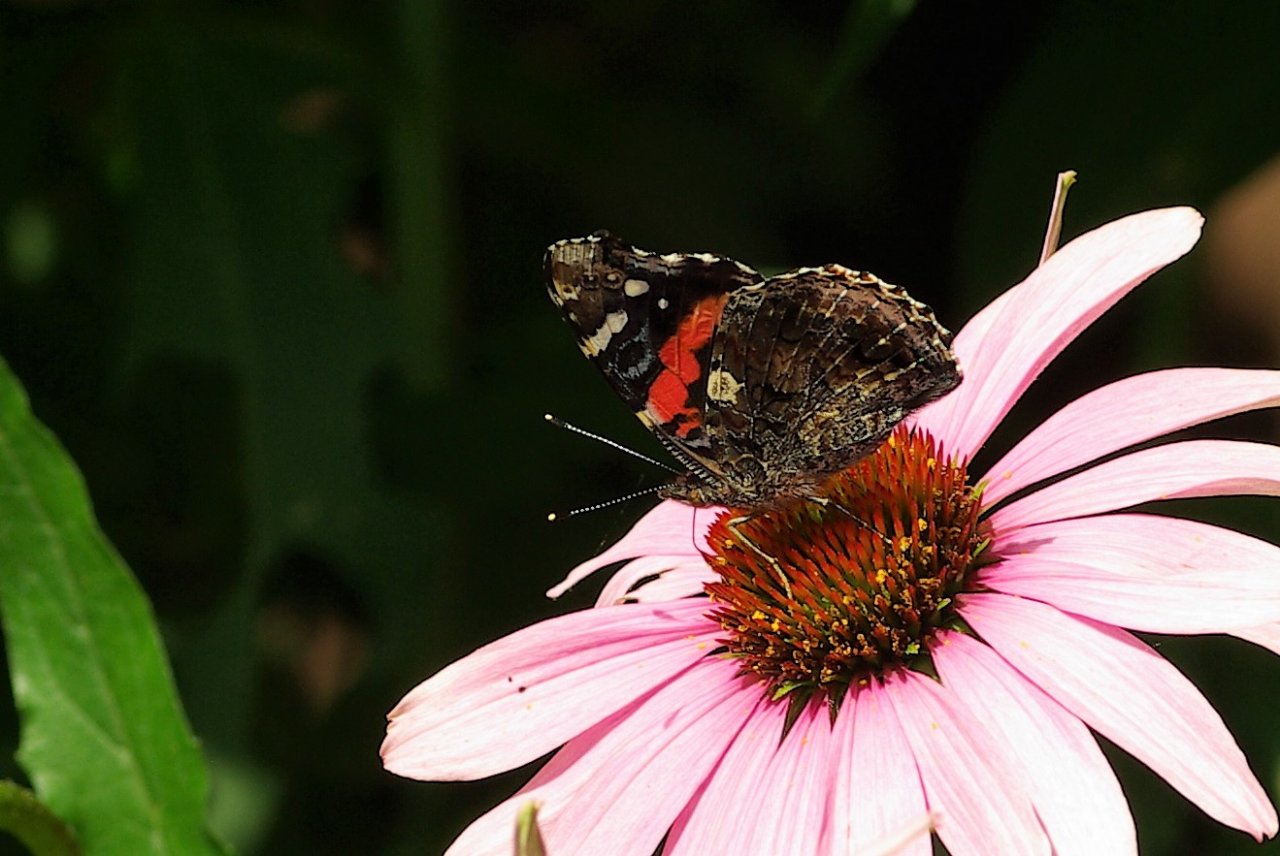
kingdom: Animalia
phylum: Arthropoda
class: Insecta
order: Lepidoptera
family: Nymphalidae
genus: Vanessa
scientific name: Vanessa atalanta
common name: Red Admiral
